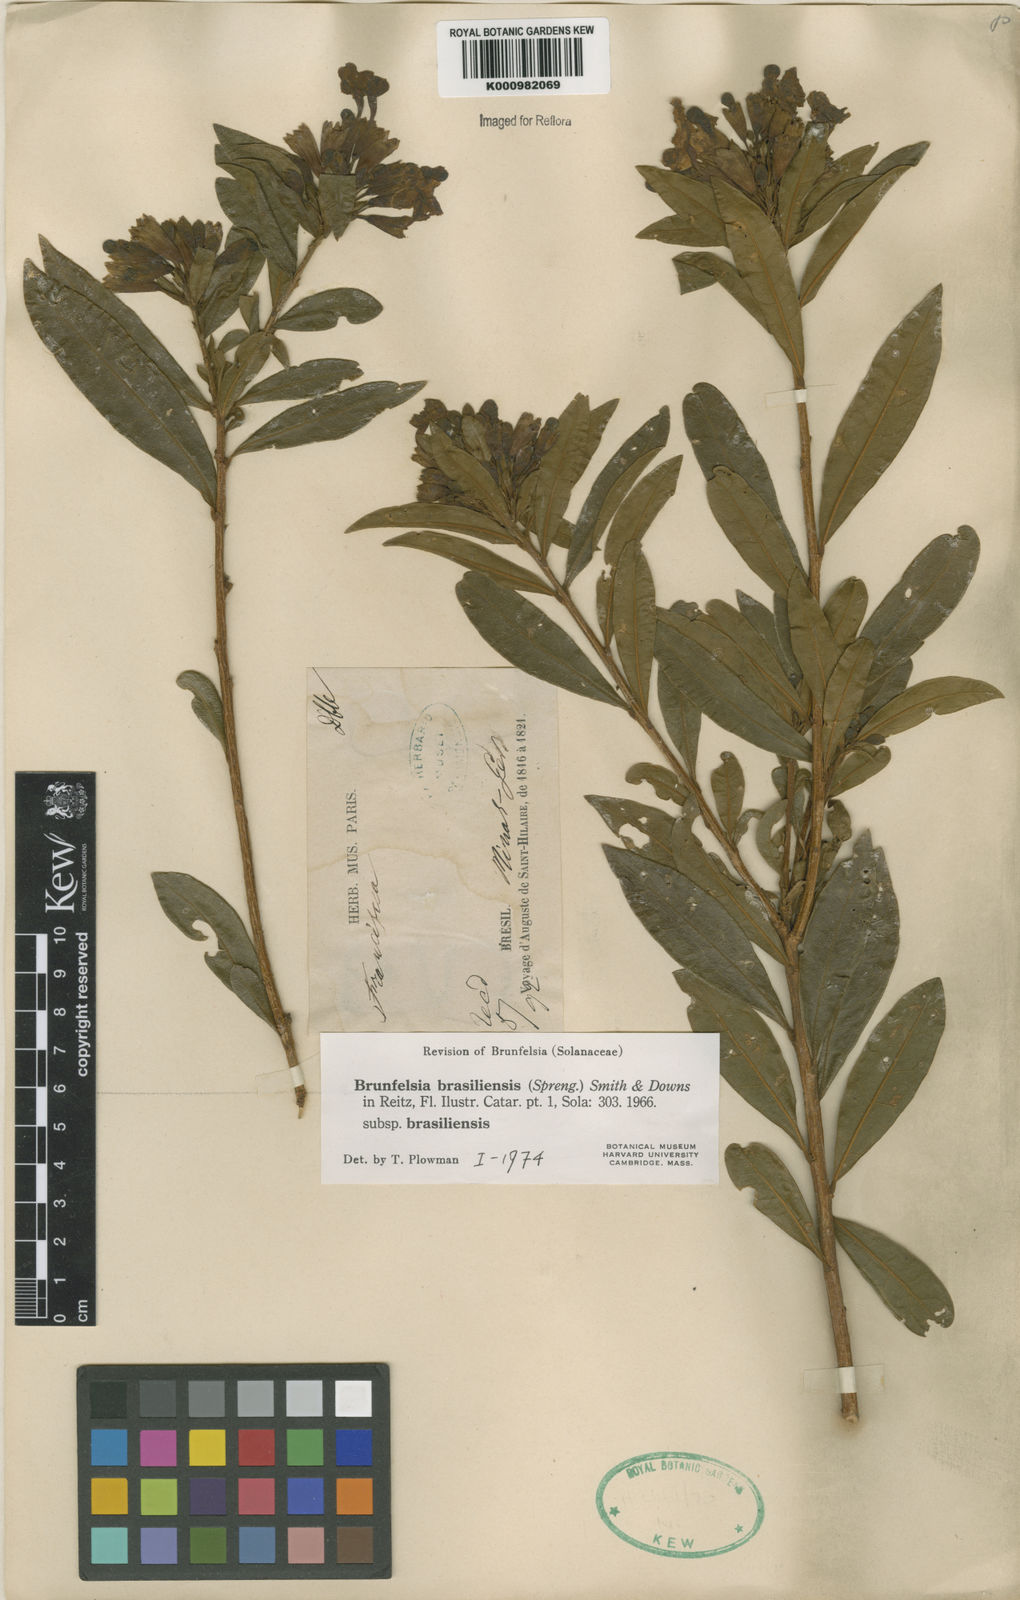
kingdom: Plantae
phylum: Tracheophyta
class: Magnoliopsida
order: Solanales
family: Solanaceae
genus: Brunfelsia
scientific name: Brunfelsia brasiliensis
